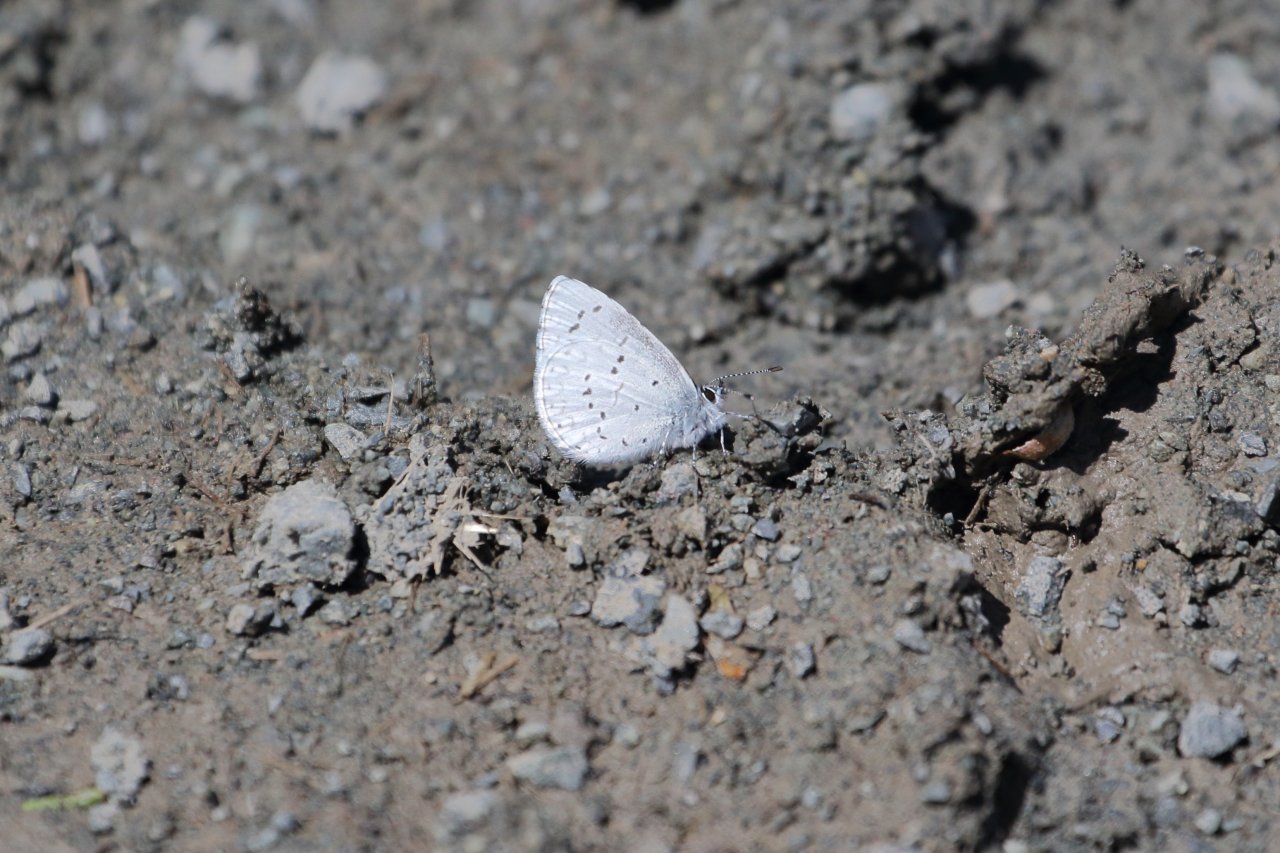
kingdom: Animalia
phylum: Arthropoda
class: Insecta
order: Lepidoptera
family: Lycaenidae
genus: Celastrina
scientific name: Celastrina ladon
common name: Echo Azure
